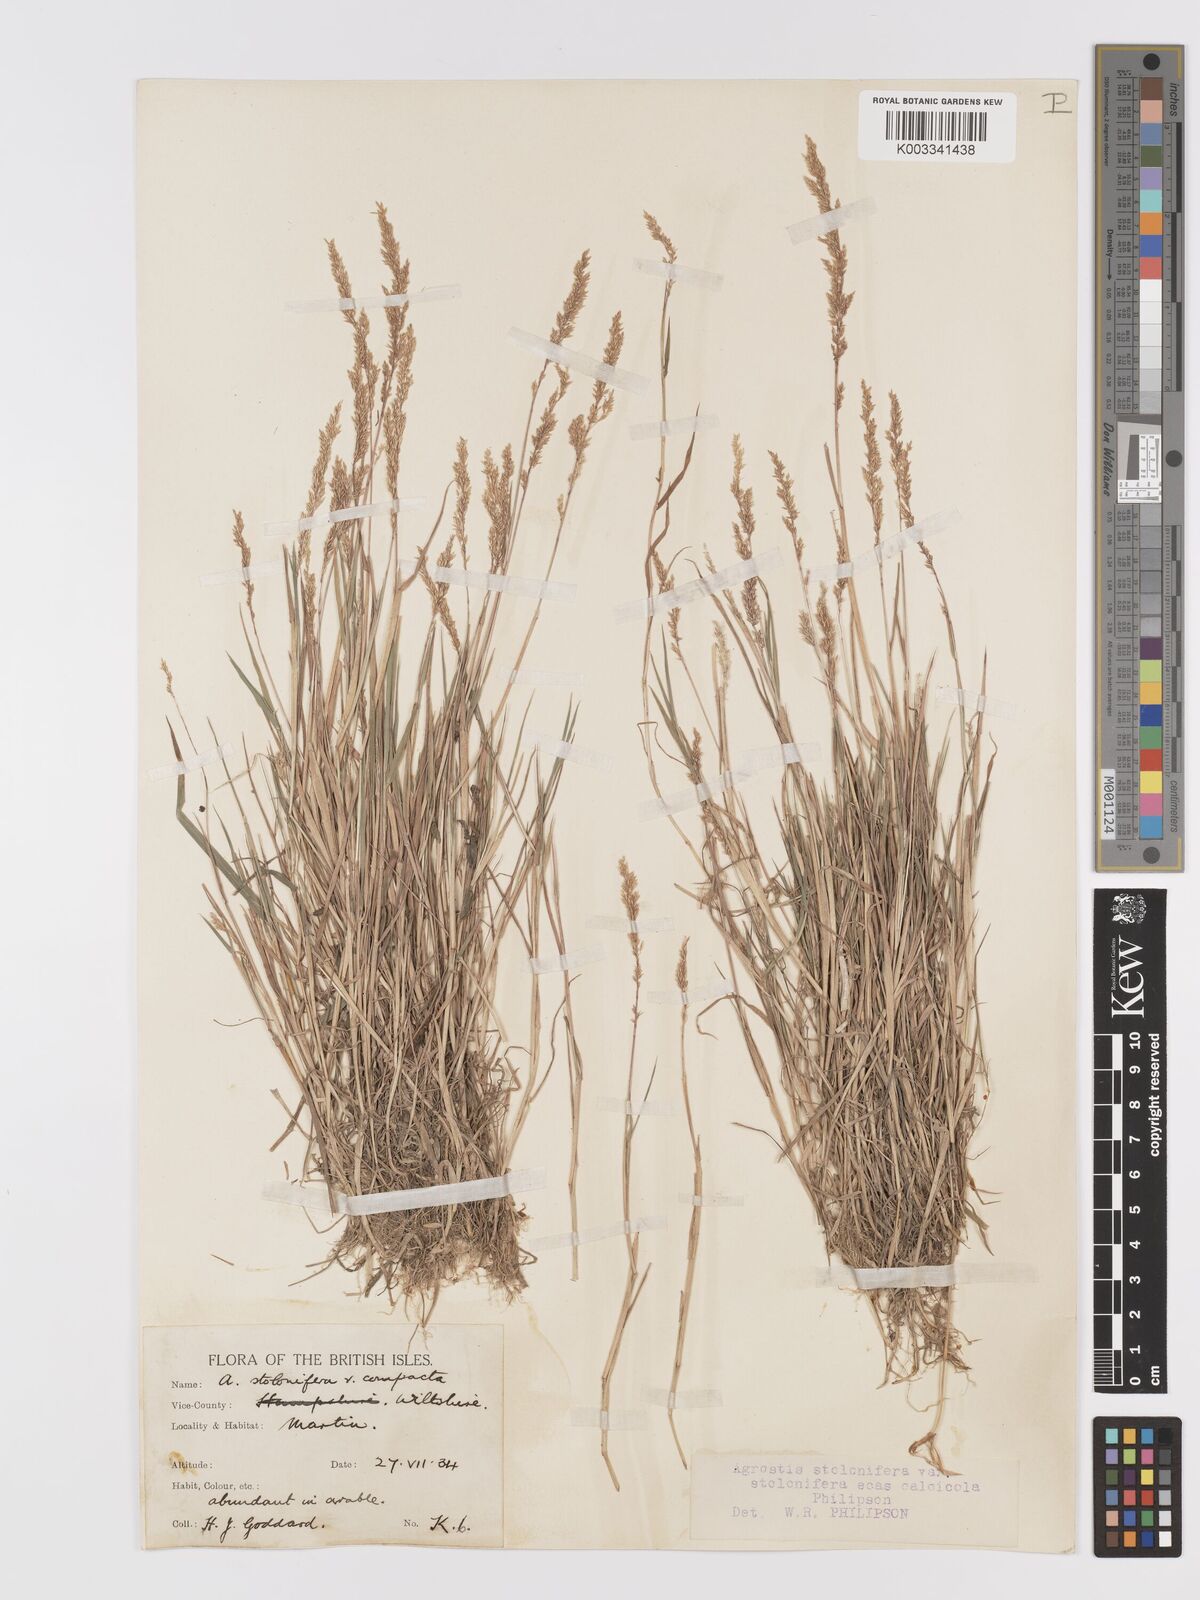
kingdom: Plantae
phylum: Tracheophyta
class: Liliopsida
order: Poales
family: Poaceae
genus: Agrostis
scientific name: Agrostis stolonifera
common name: Creeping bentgrass
